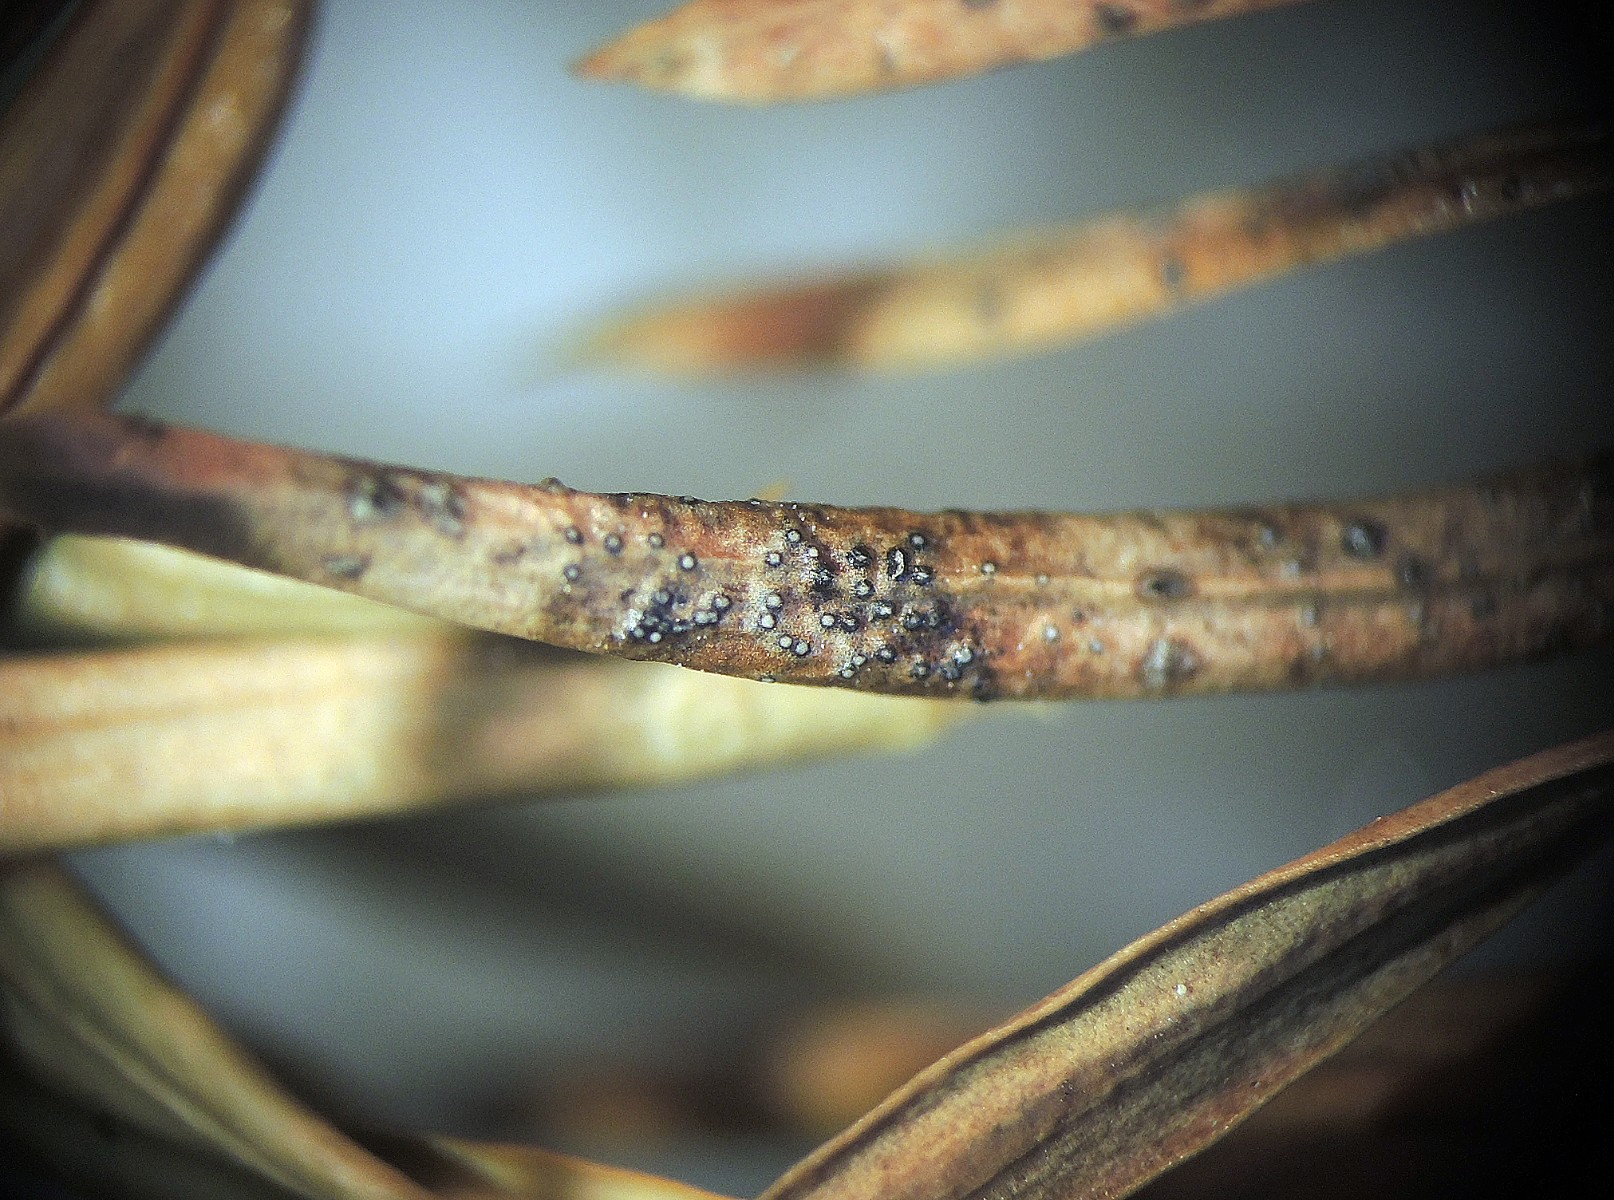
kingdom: Fungi
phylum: Ascomycota
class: Dothideomycetes
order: Botryosphaeriales
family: Botryosphaeriaceae
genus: Diplodia
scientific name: Diplodia taxi
